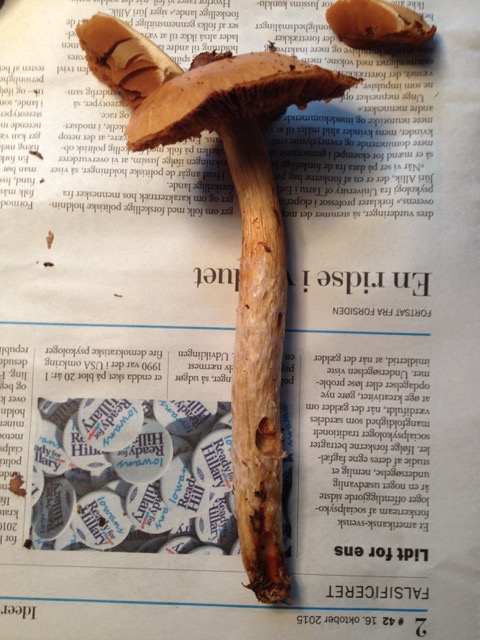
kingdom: Fungi
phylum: Basidiomycota
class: Agaricomycetes
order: Agaricales
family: Cortinariaceae
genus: Cortinarius
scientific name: Cortinarius collinitus
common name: spættet slørhat
